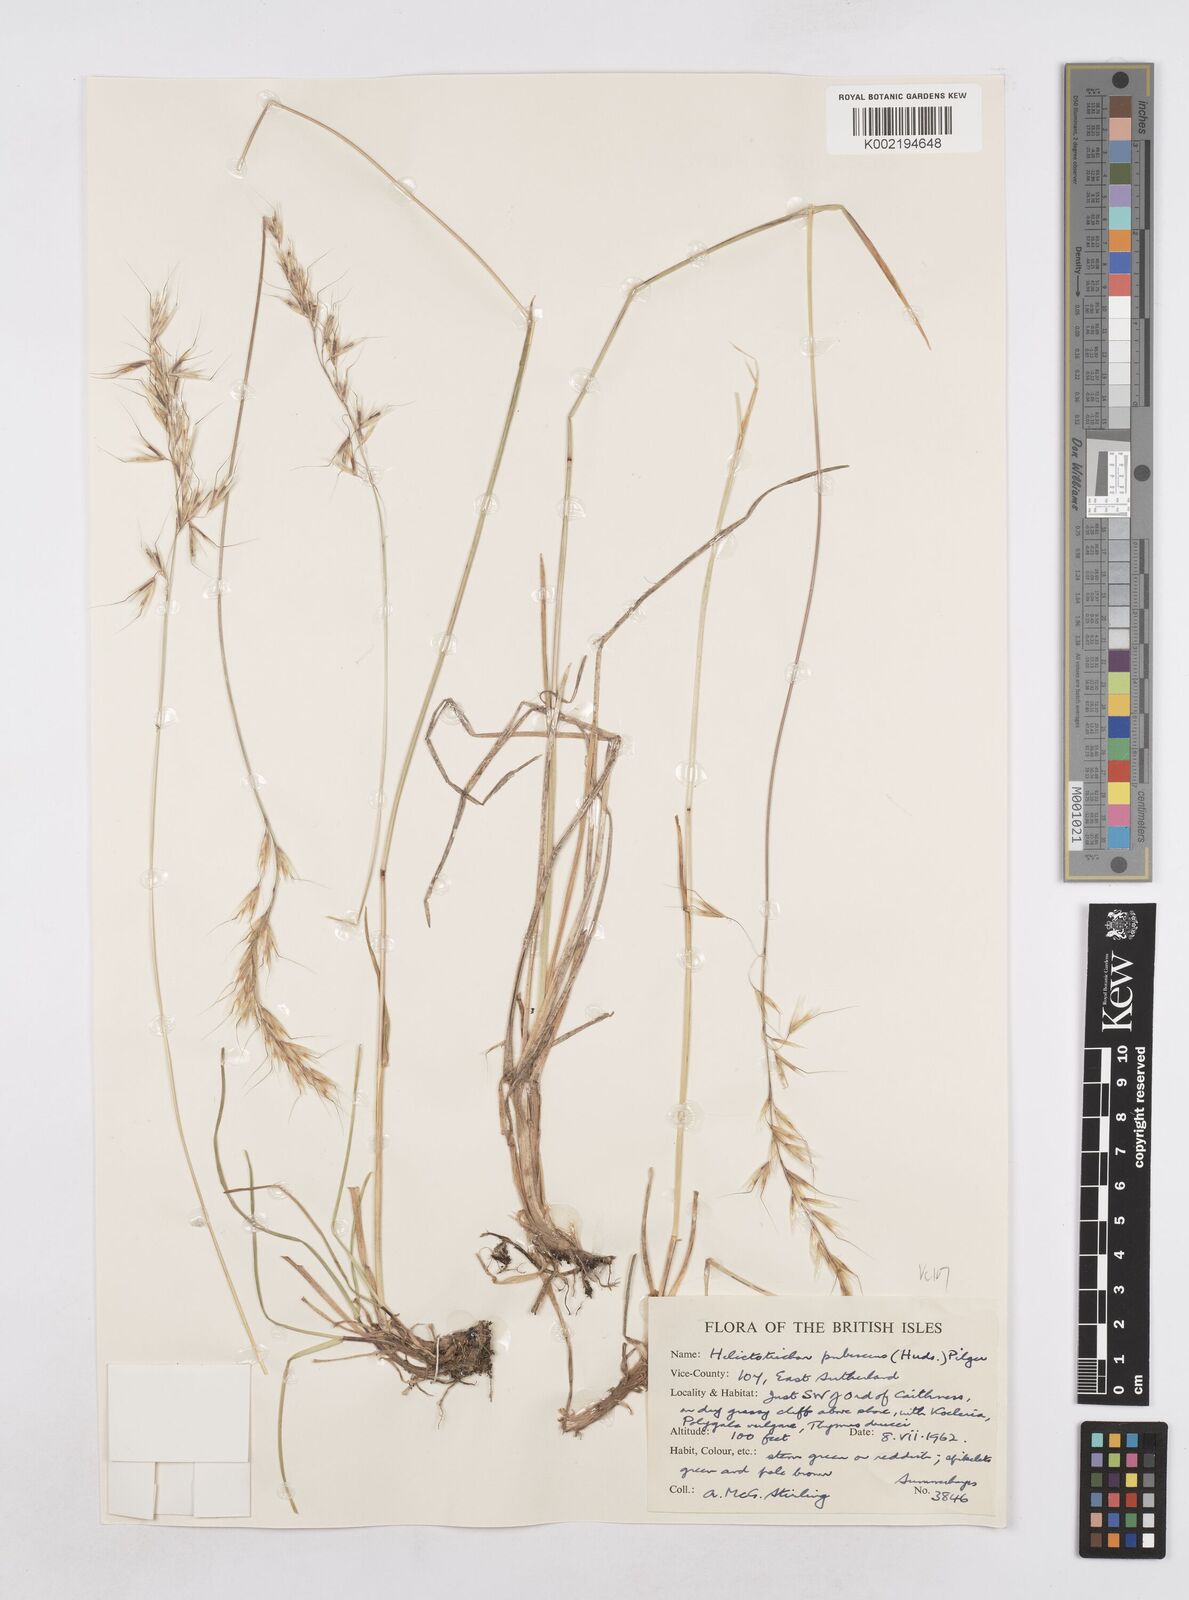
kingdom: Plantae
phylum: Tracheophyta
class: Liliopsida
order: Poales
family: Poaceae
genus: Avenula
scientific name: Avenula pubescens
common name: Downy alpine oatgrass
